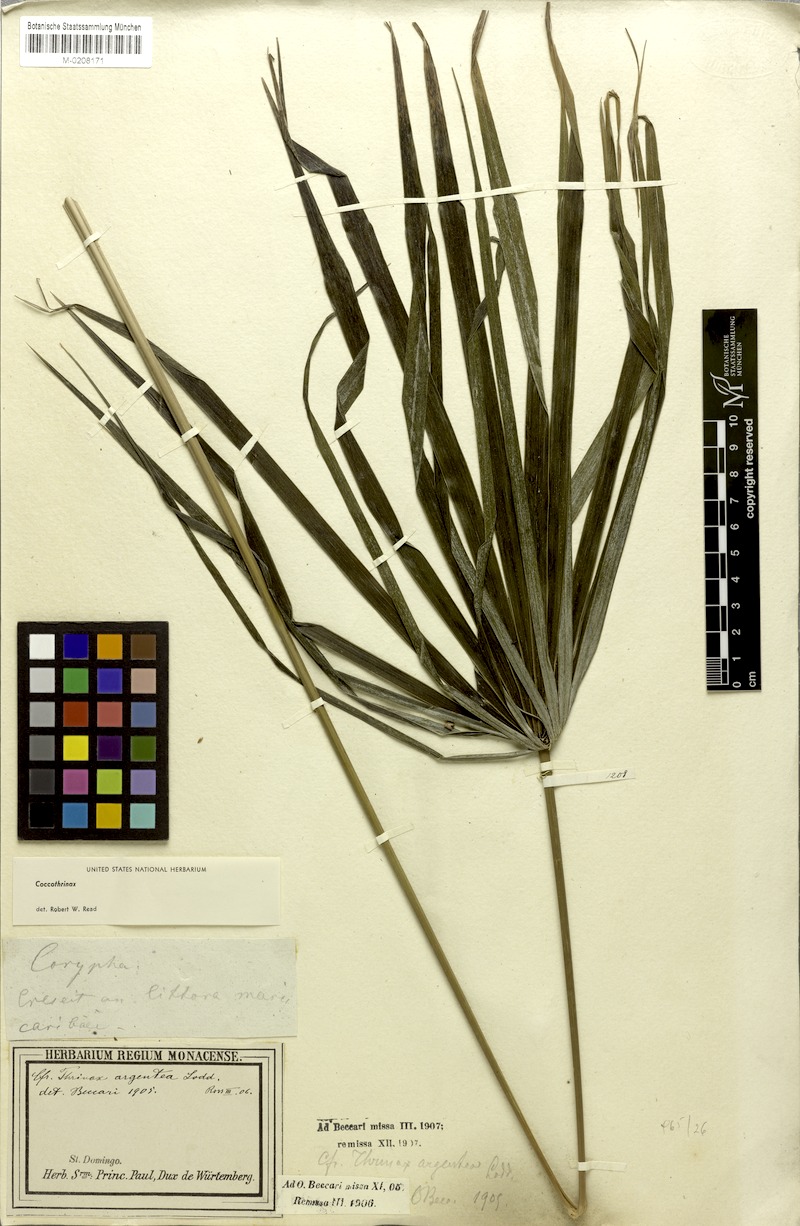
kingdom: Plantae
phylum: Tracheophyta
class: Liliopsida
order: Arecales
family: Arecaceae
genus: Coccothrinax
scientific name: Coccothrinax argentea
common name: Broom palm
